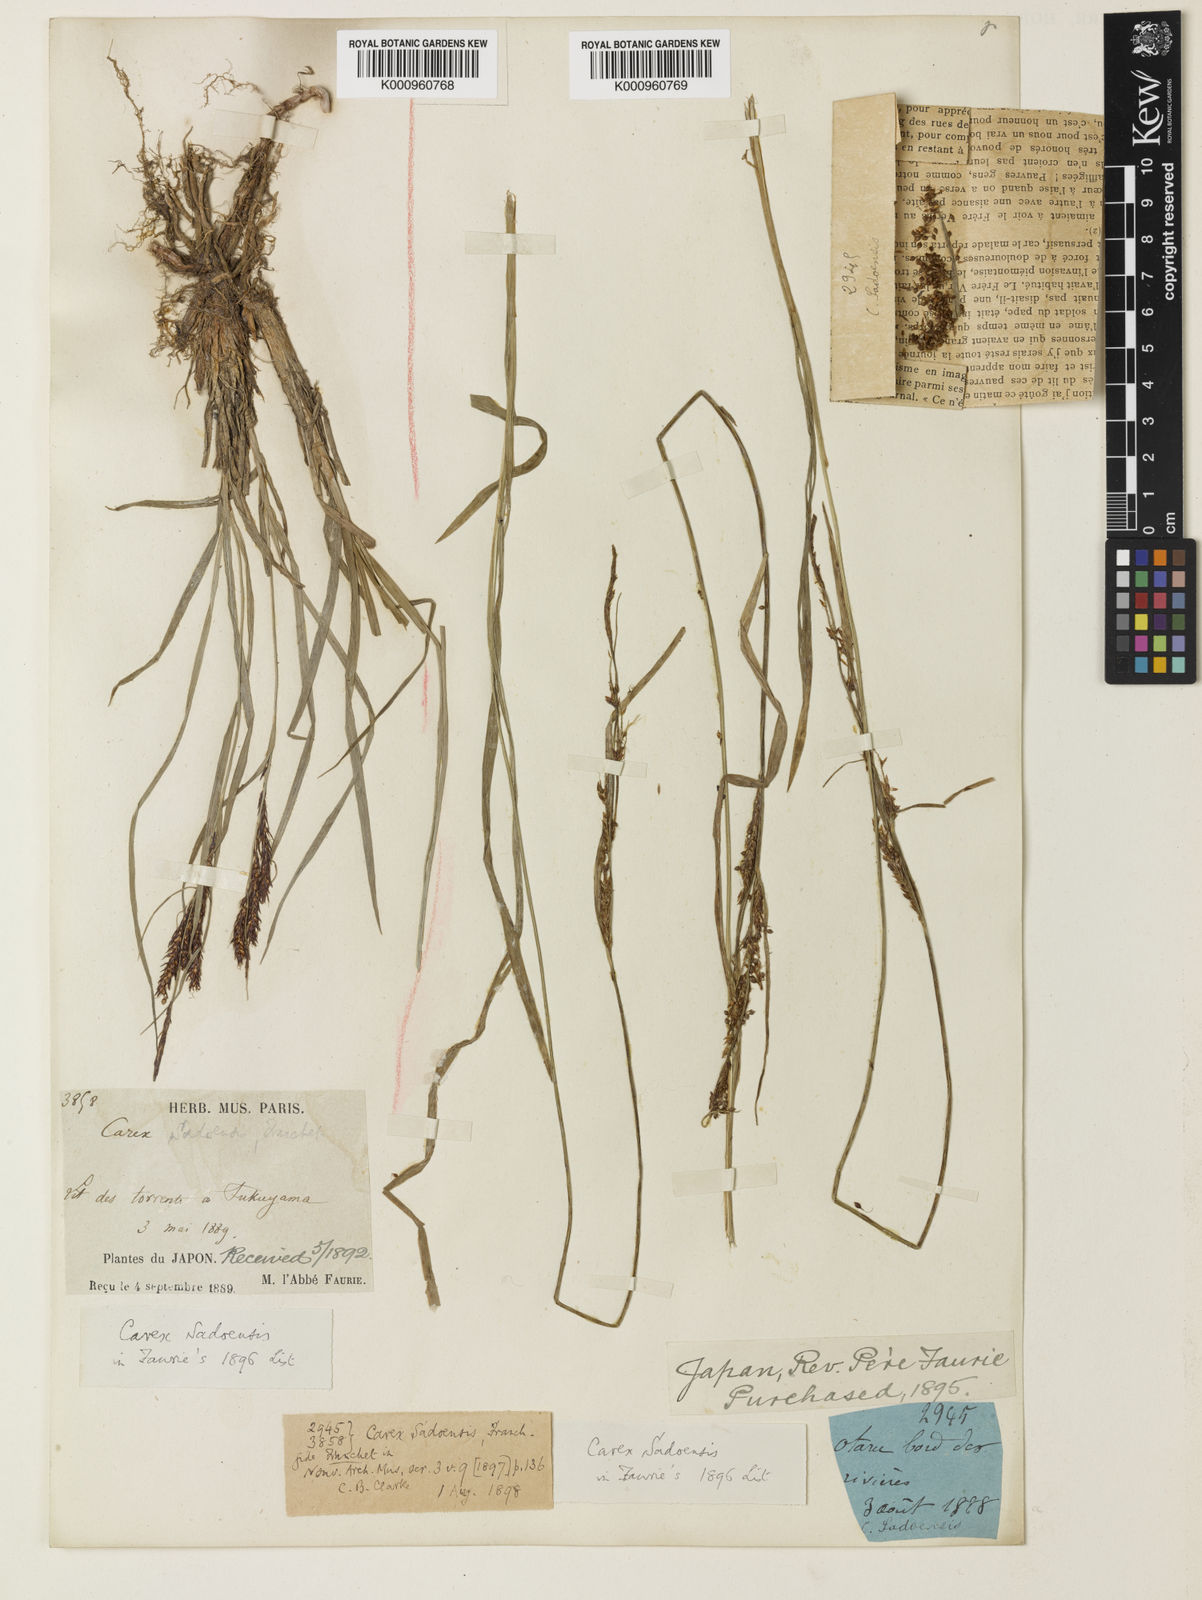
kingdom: Plantae
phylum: Tracheophyta
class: Liliopsida
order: Poales
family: Cyperaceae
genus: Carex
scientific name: Carex sadoensis
